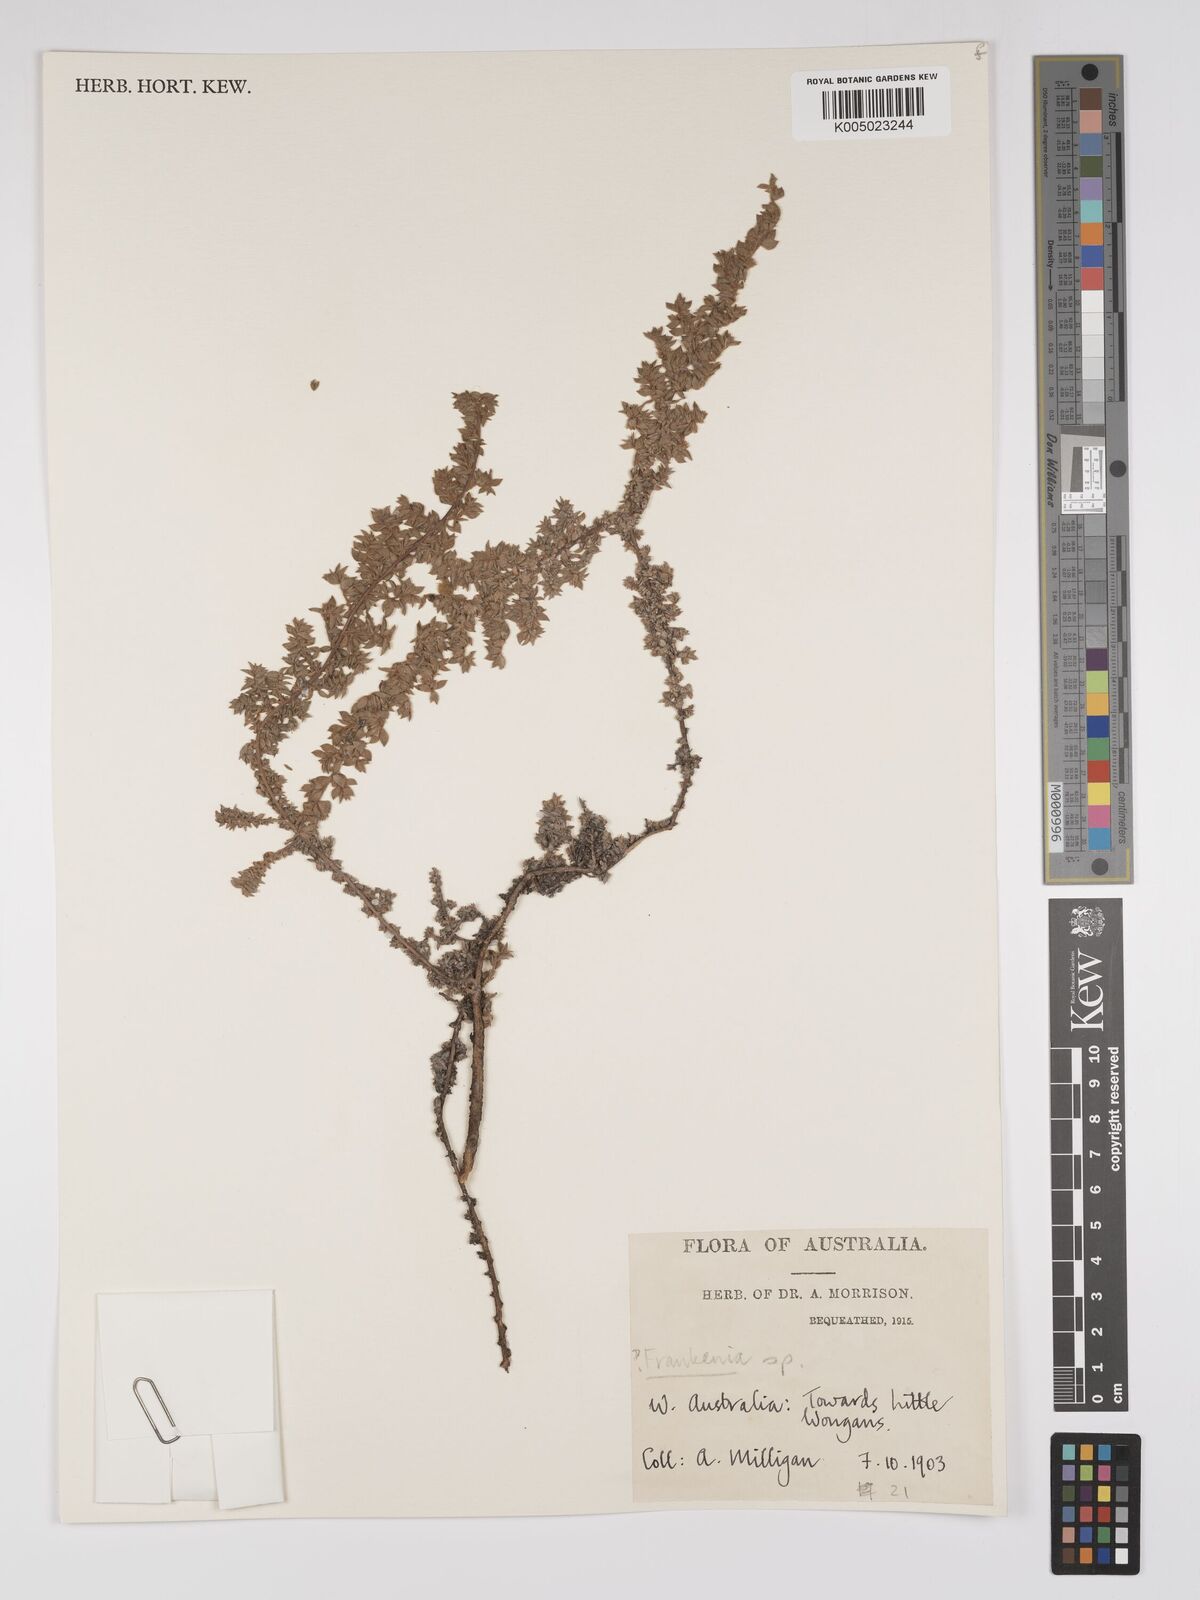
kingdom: Plantae
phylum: Tracheophyta
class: Magnoliopsida
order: Caryophyllales
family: Frankeniaceae
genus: Frankenia
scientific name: Frankenia
